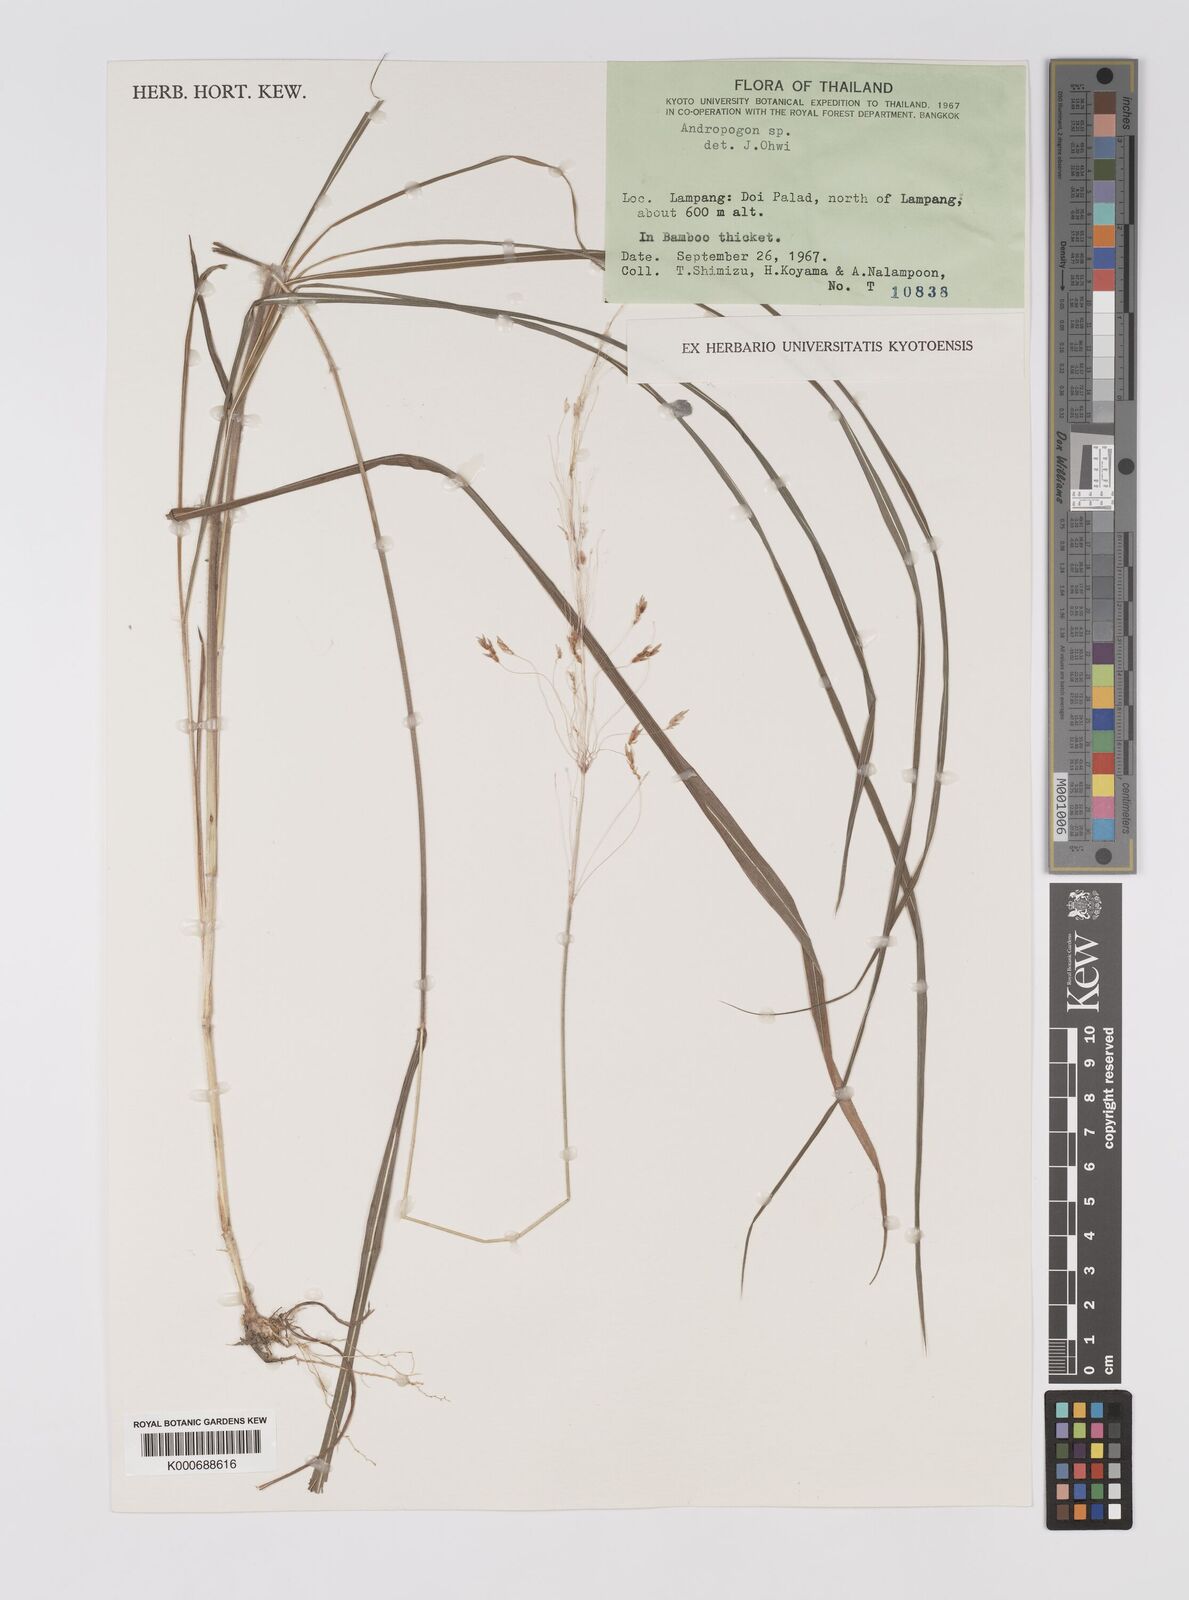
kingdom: Plantae
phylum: Tracheophyta
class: Liliopsida
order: Poales
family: Poaceae
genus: Sorghum
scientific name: Sorghum nitidum
